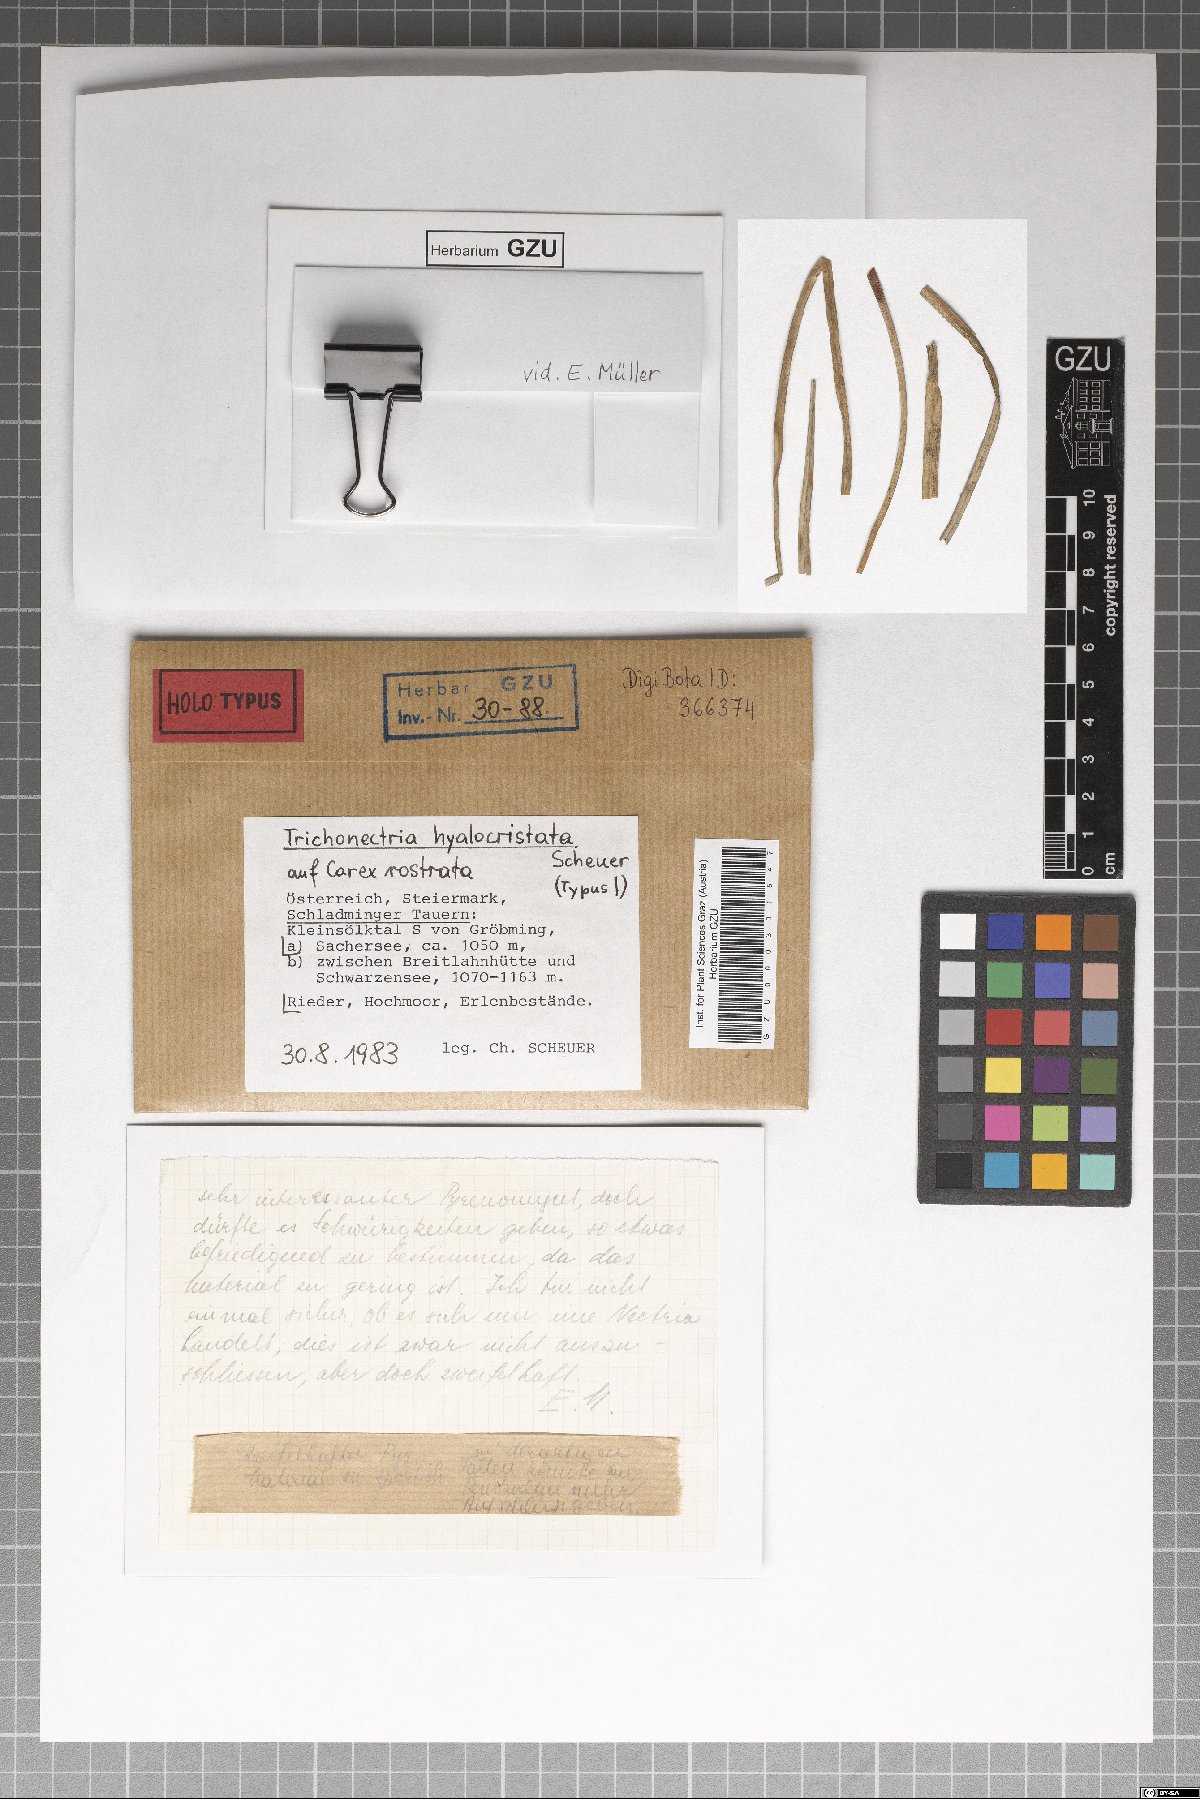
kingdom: Fungi
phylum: Ascomycota
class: Sordariomycetes
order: Hypocreales
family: Bionectriaceae
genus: Trichonectria
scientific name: Trichonectria hyalocristata
